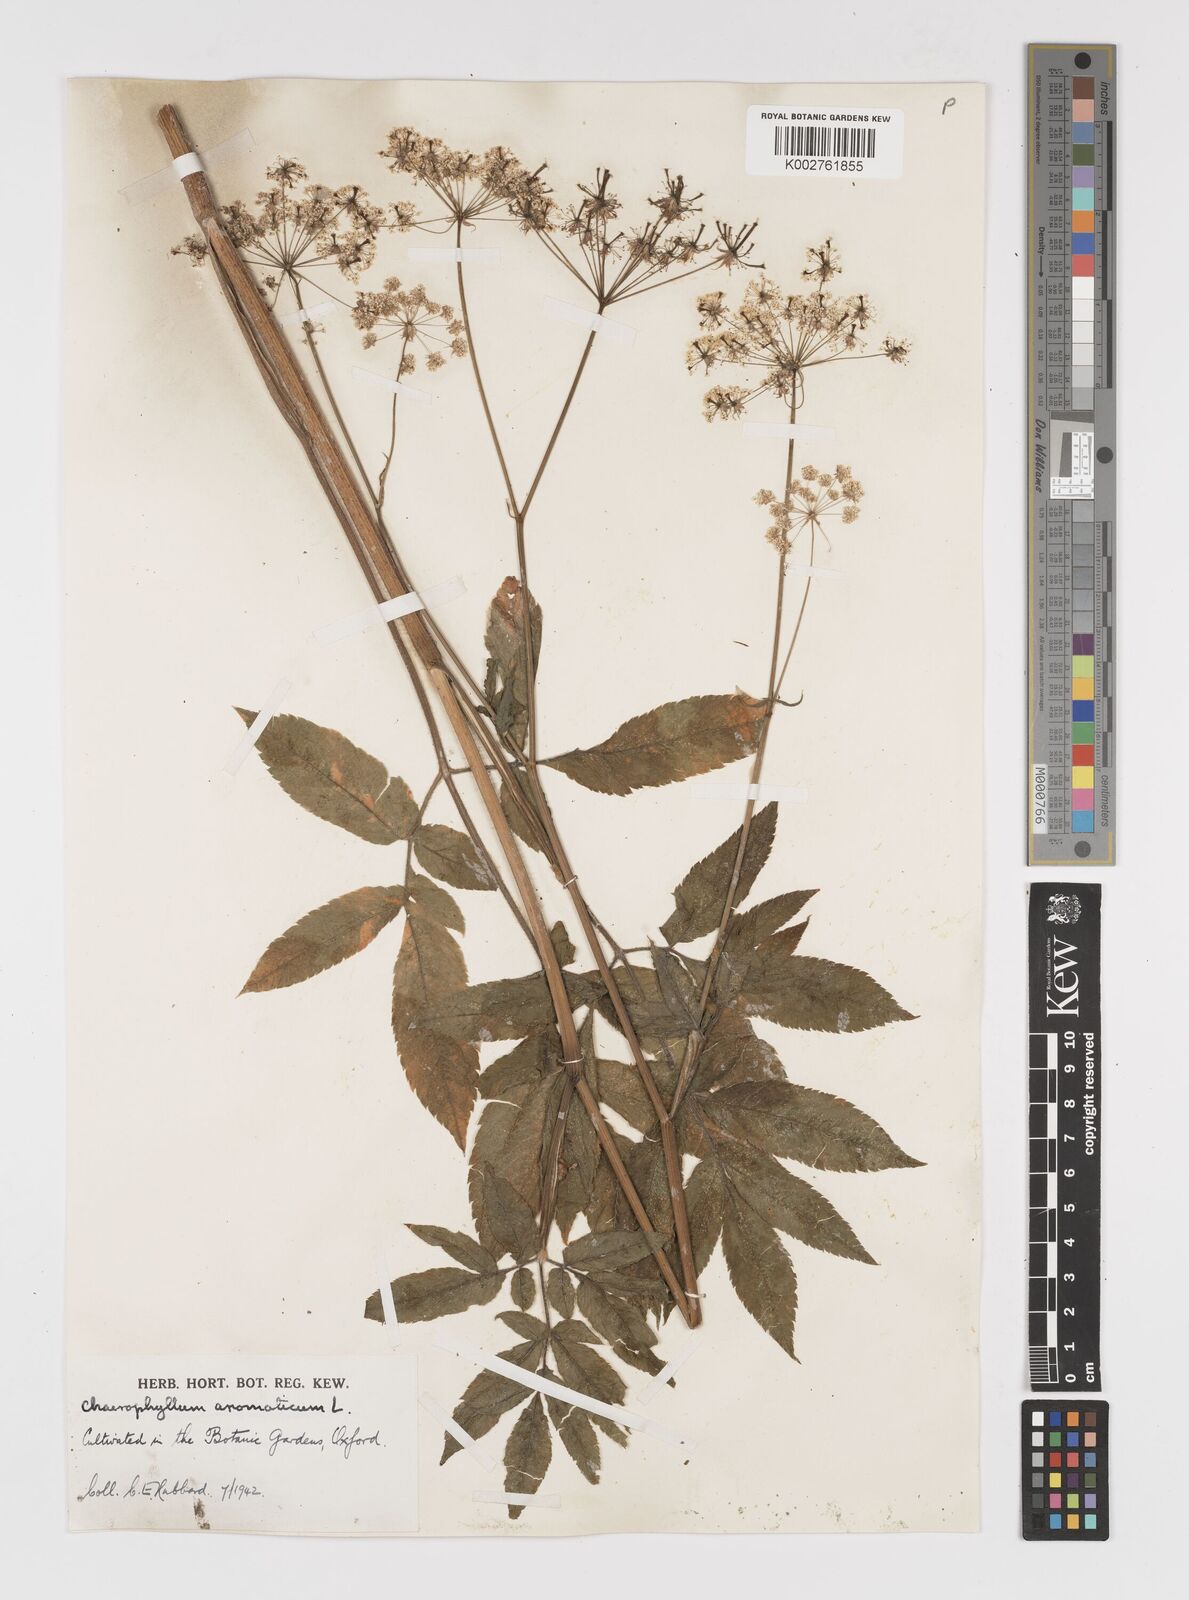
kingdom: Plantae
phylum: Tracheophyta
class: Magnoliopsida
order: Apiales
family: Apiaceae
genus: Chaerophyllum
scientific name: Chaerophyllum aromaticum
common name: Broadleaf chervil
